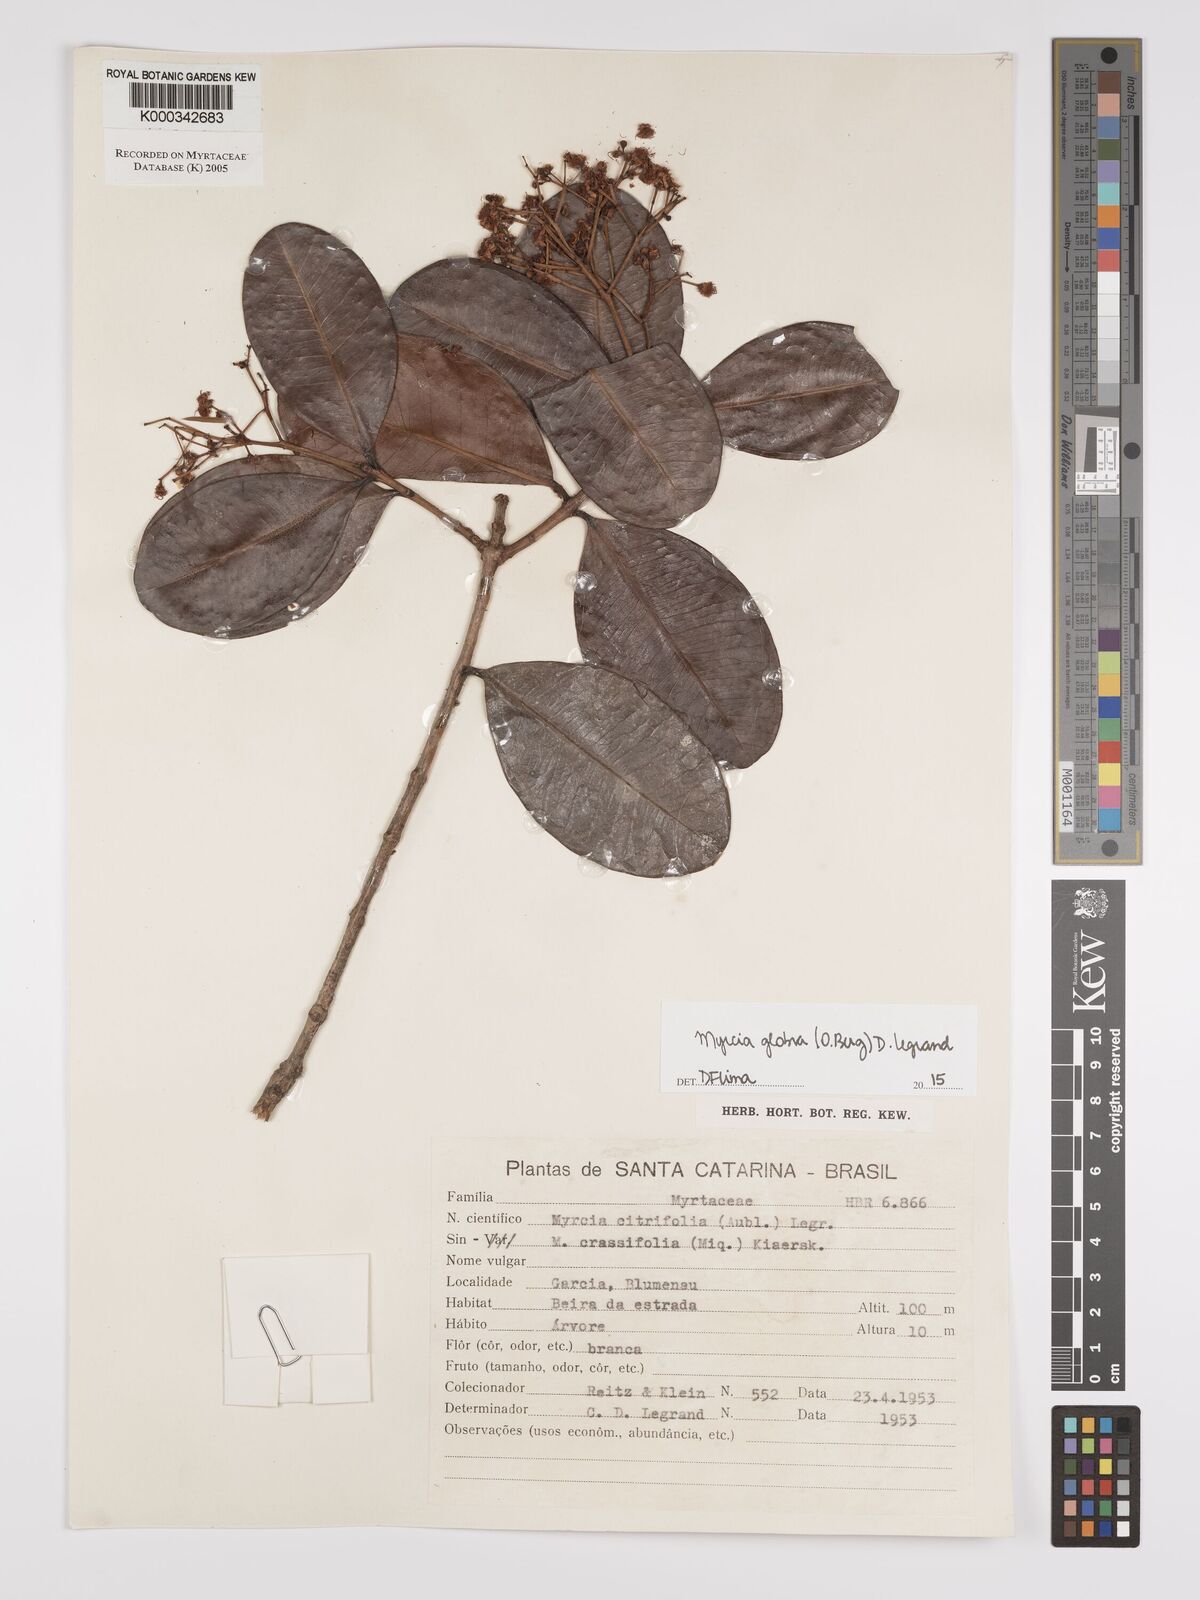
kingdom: Plantae
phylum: Tracheophyta
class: Magnoliopsida
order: Myrtales
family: Myrtaceae
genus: Myrcia
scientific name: Myrcia guianensis
